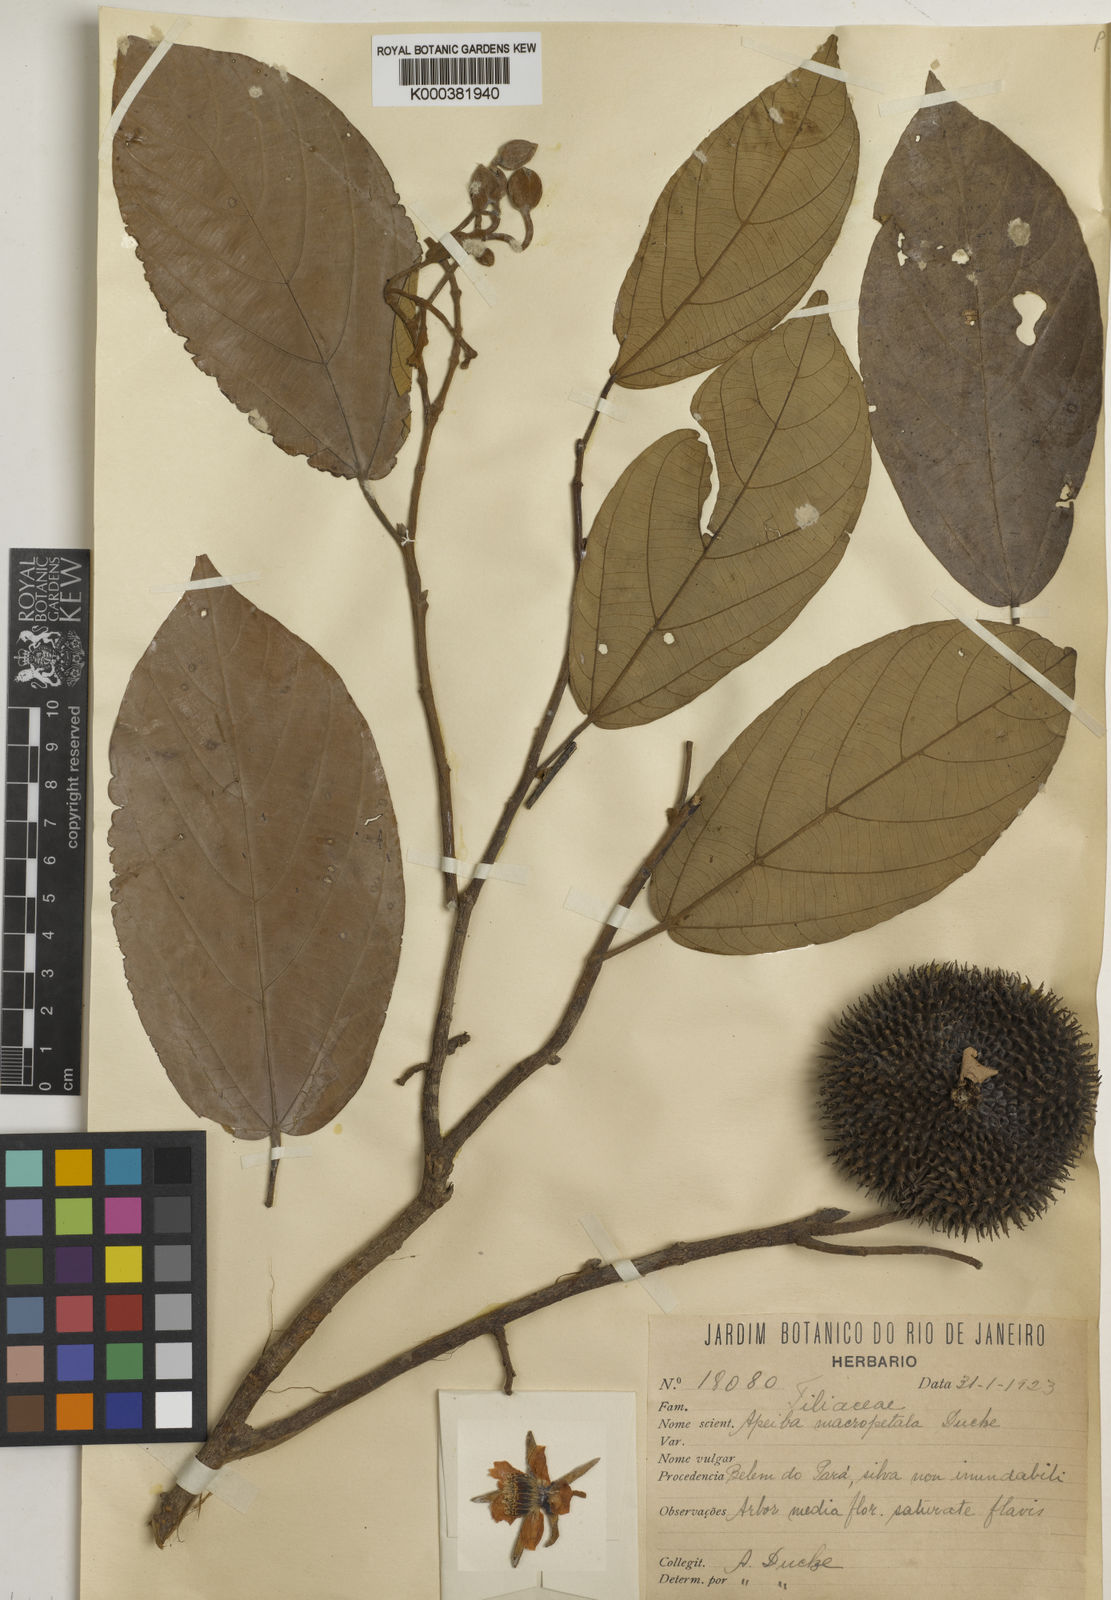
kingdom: Plantae
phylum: Tracheophyta
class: Magnoliopsida
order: Malvales
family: Malvaceae
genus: Apeiba
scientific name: Apeiba petoumo
